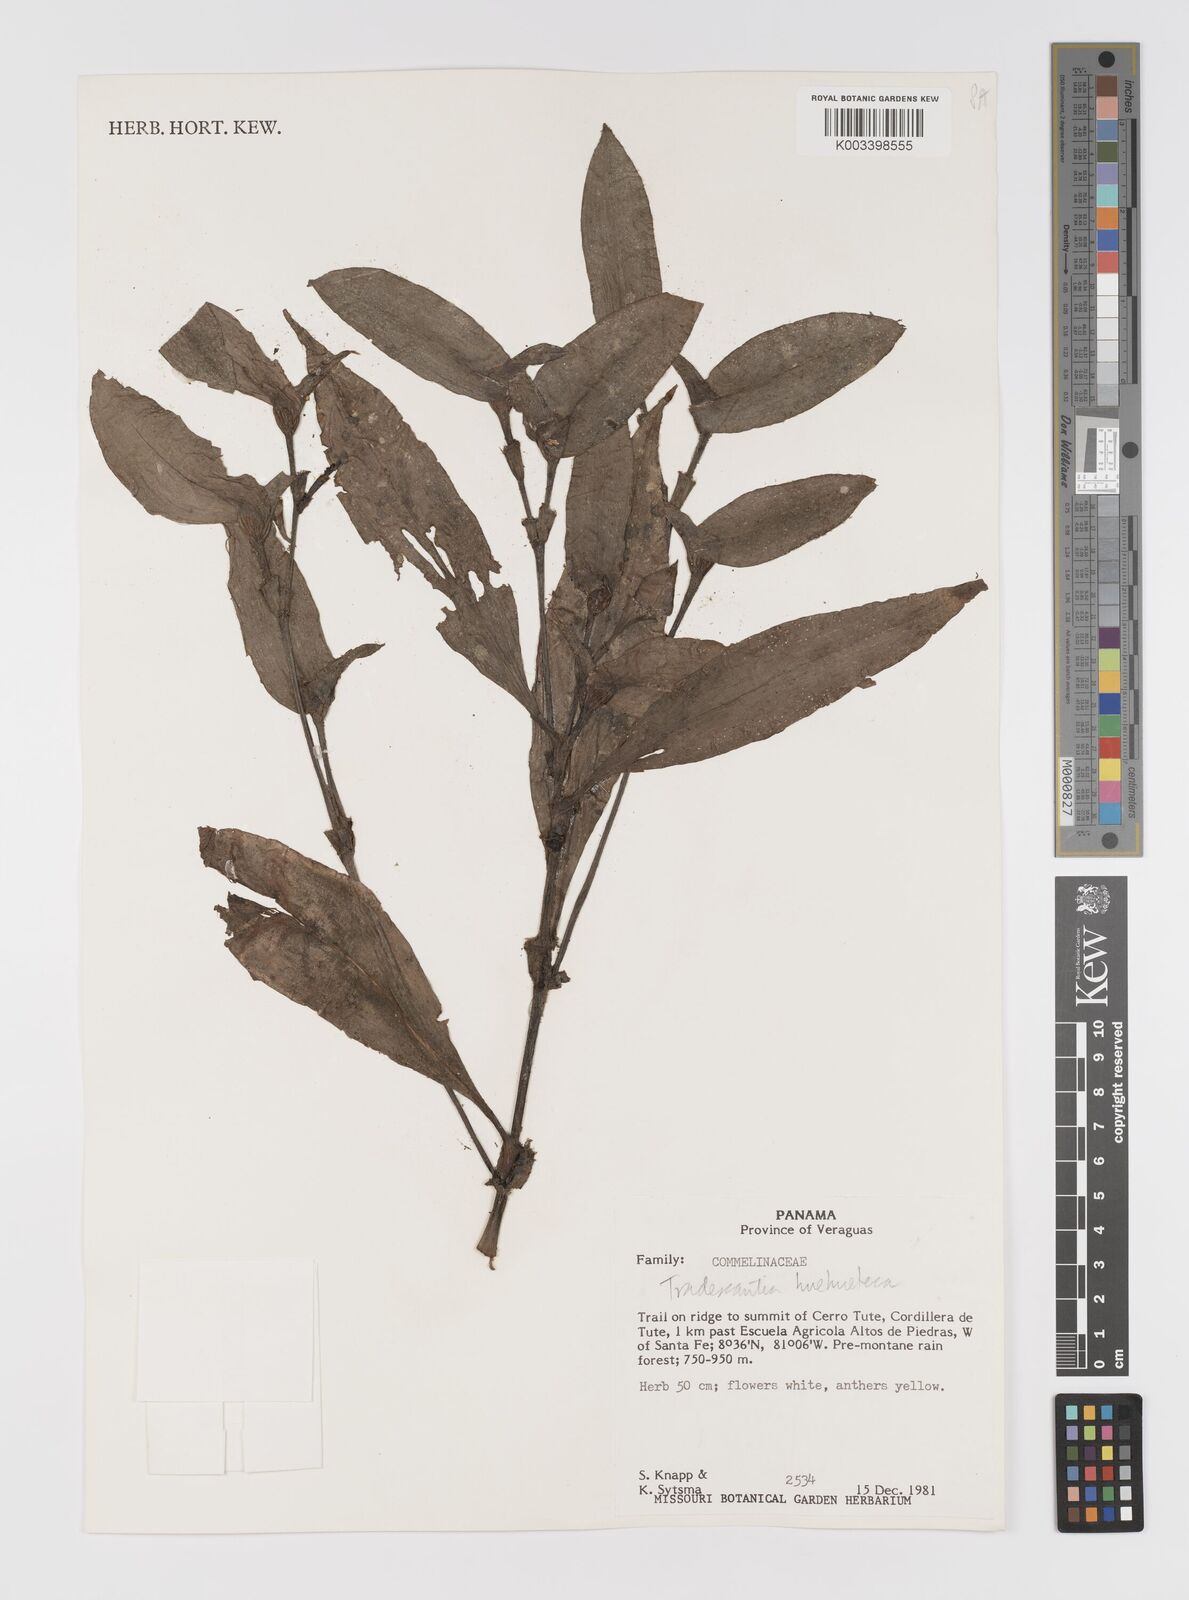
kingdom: Plantae
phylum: Tracheophyta
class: Liliopsida
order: Commelinales
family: Commelinaceae
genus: Tradescantia
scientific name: Tradescantia huehueteca
